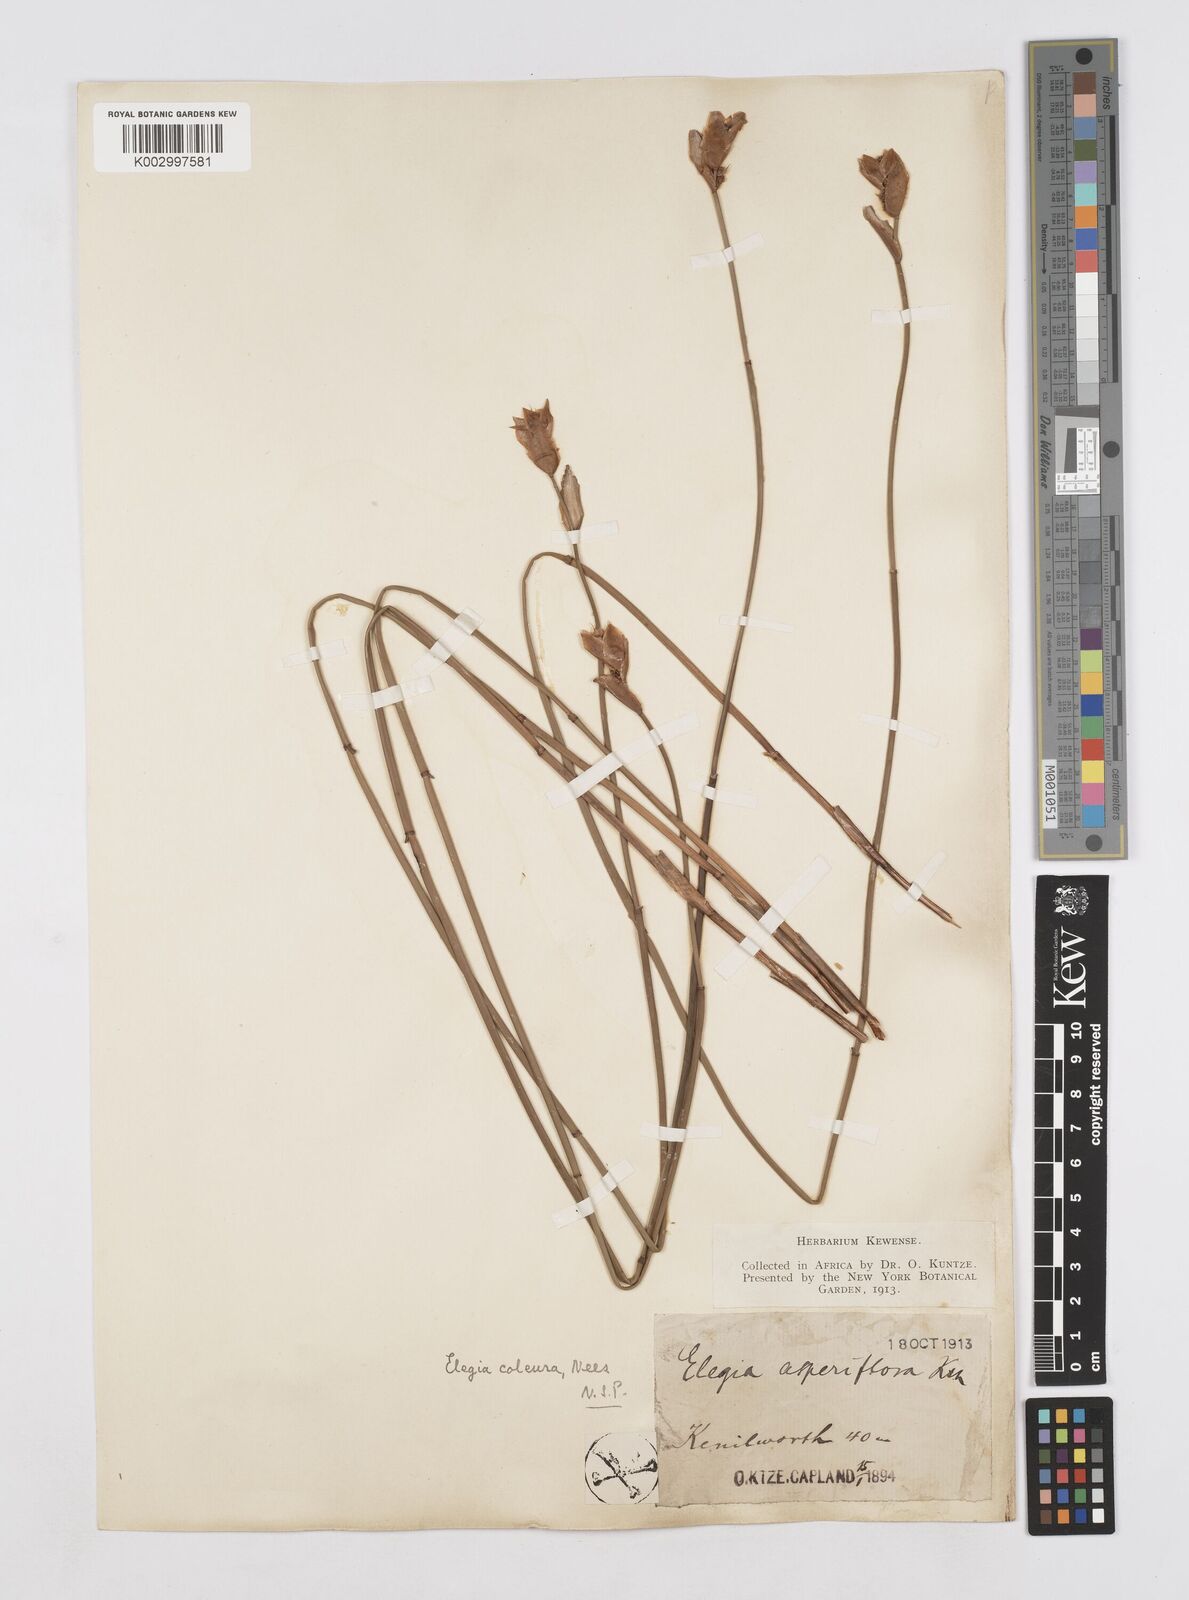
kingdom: Plantae
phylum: Tracheophyta
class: Liliopsida
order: Poales
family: Restionaceae
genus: Elegia
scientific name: Elegia coleura
